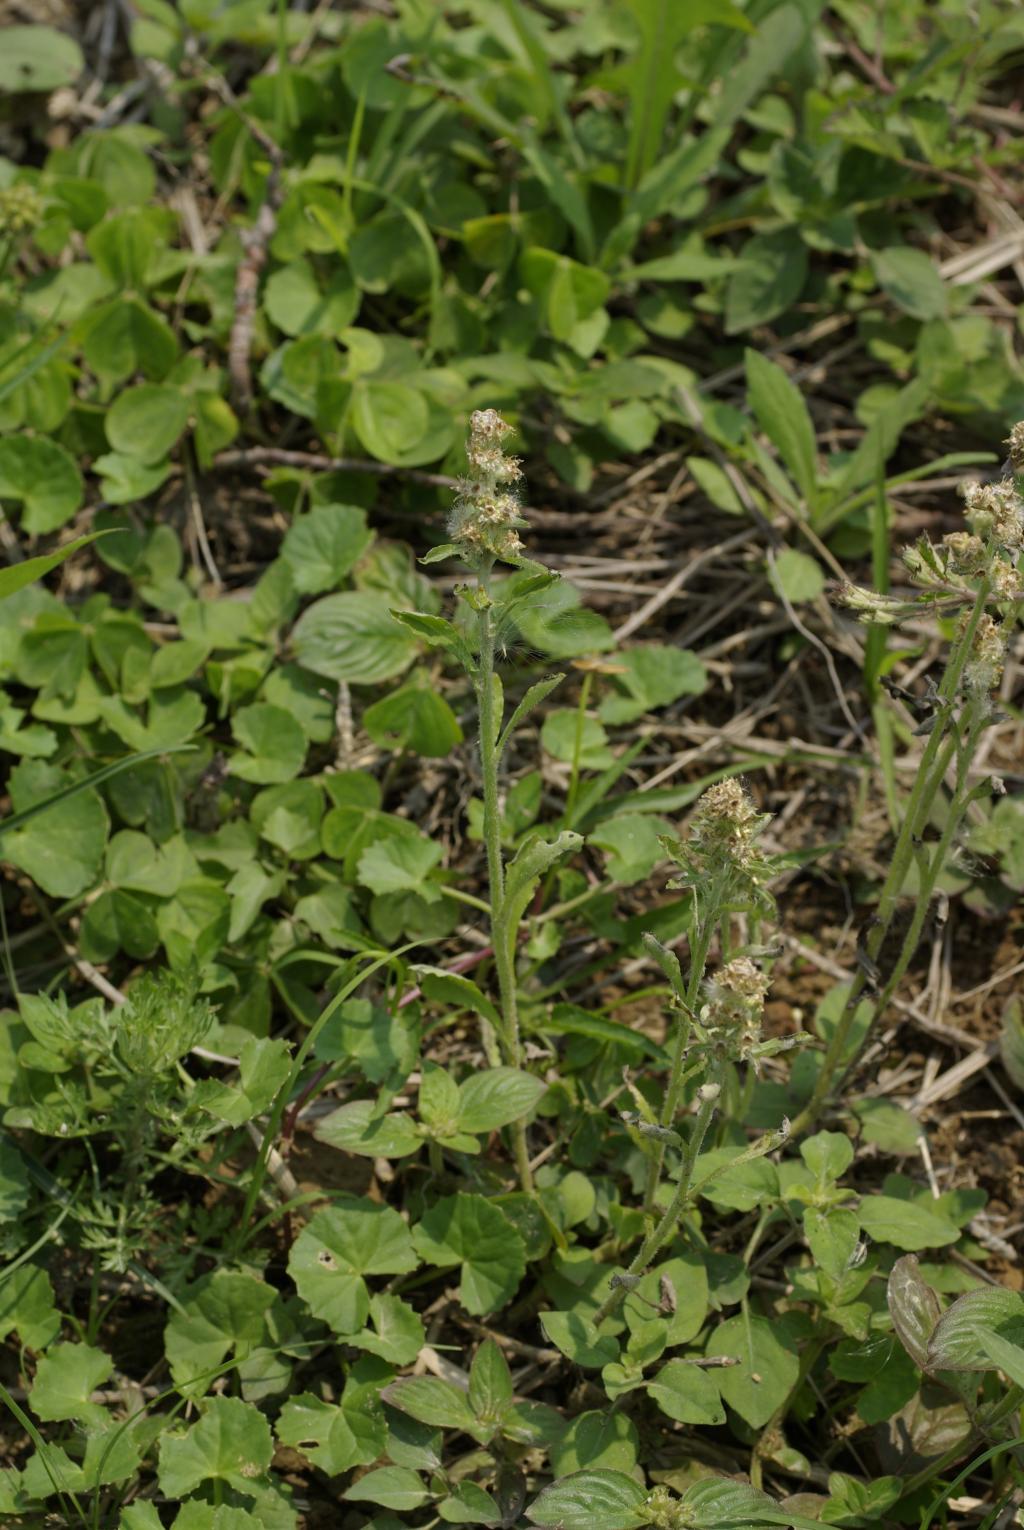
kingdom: Plantae
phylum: Tracheophyta
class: Magnoliopsida
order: Asterales
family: Asteraceae
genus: Gamochaeta
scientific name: Gamochaeta calviceps
